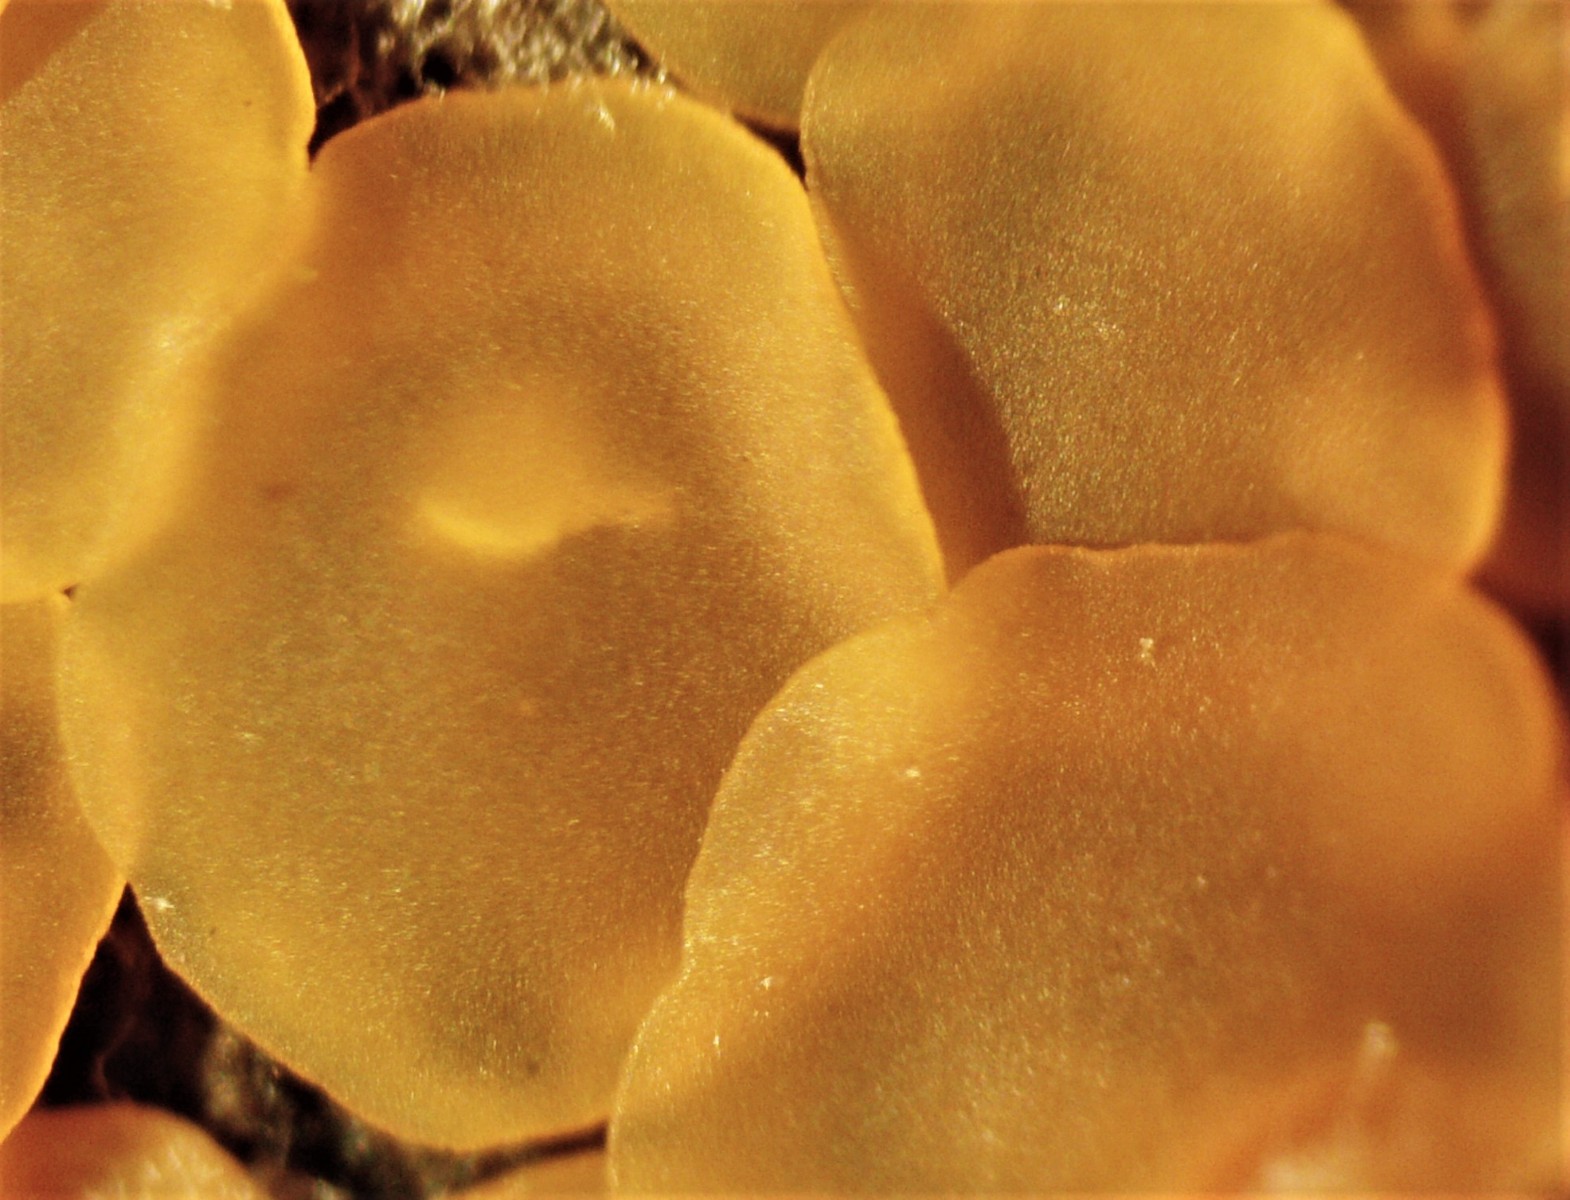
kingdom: Fungi
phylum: Ascomycota
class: Orbiliomycetes
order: Orbiliales
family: Orbiliaceae
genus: Orbilia
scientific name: Orbilia xanthostigma
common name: krumsporet voksskive
